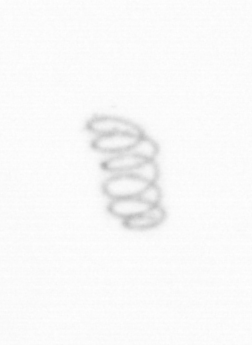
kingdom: Chromista
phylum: Ochrophyta
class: Bacillariophyceae
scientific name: Bacillariophyceae
